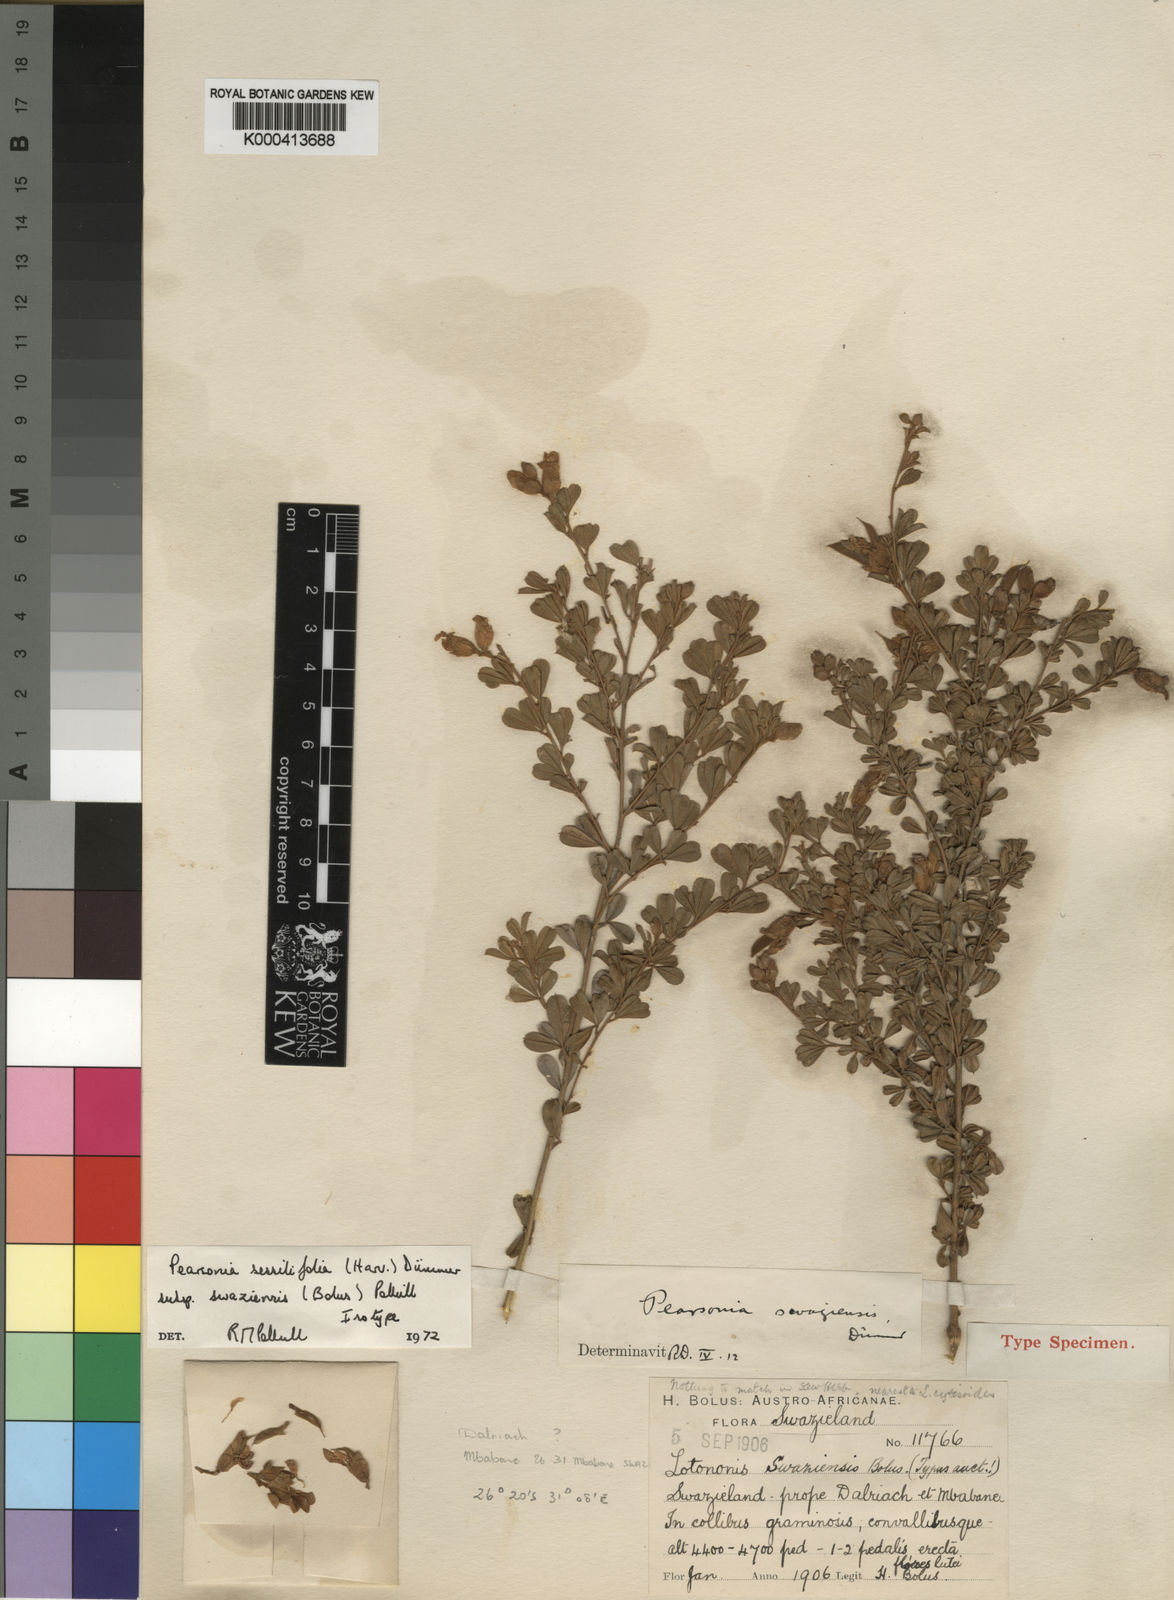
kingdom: Plantae
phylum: Tracheophyta
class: Magnoliopsida
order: Fabales
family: Fabaceae
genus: Pearsonia
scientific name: Pearsonia sessilifolia
